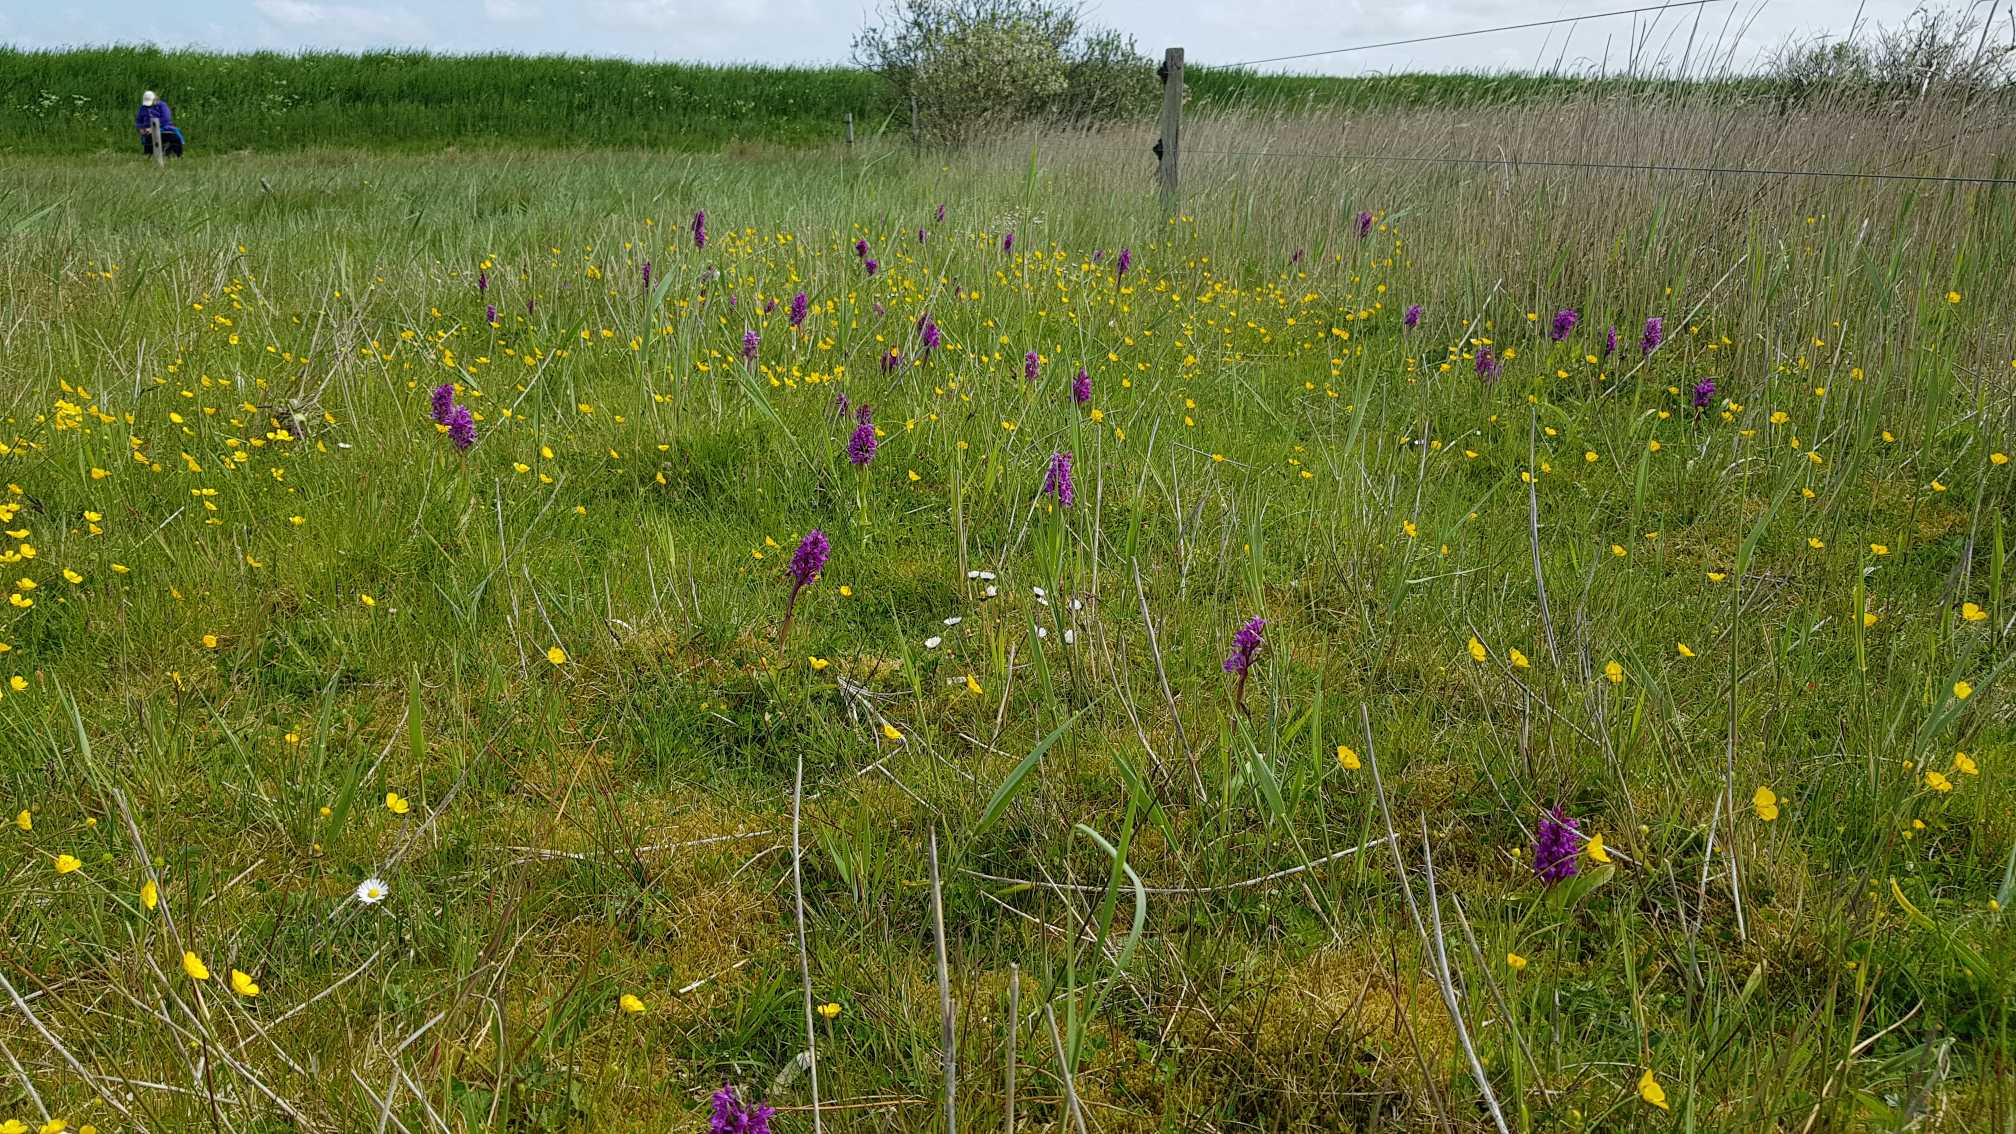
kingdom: Plantae
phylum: Tracheophyta
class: Liliopsida
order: Asparagales
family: Orchidaceae
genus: Dactylorhiza
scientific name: Dactylorhiza majalis
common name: Maj-gøgeurt
